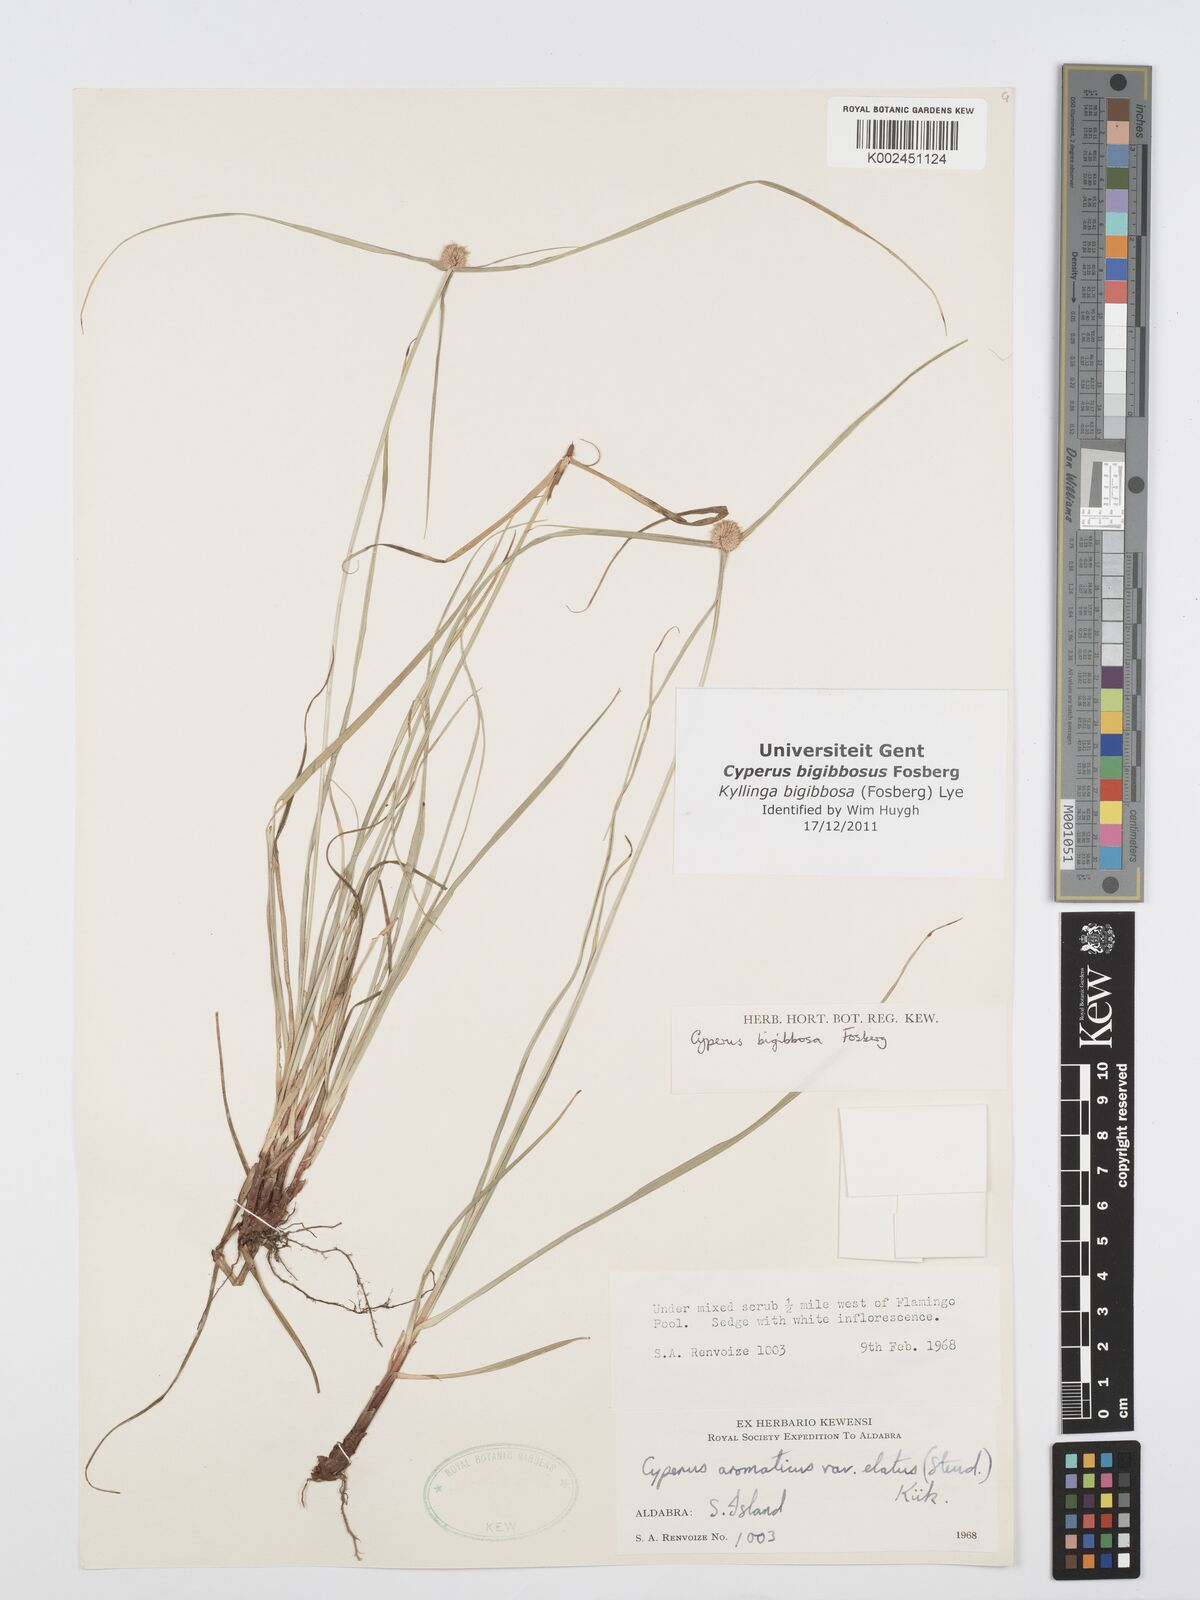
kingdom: Plantae
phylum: Tracheophyta
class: Liliopsida
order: Poales
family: Cyperaceae
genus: Cyperus
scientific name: Cyperus bigibbosa
